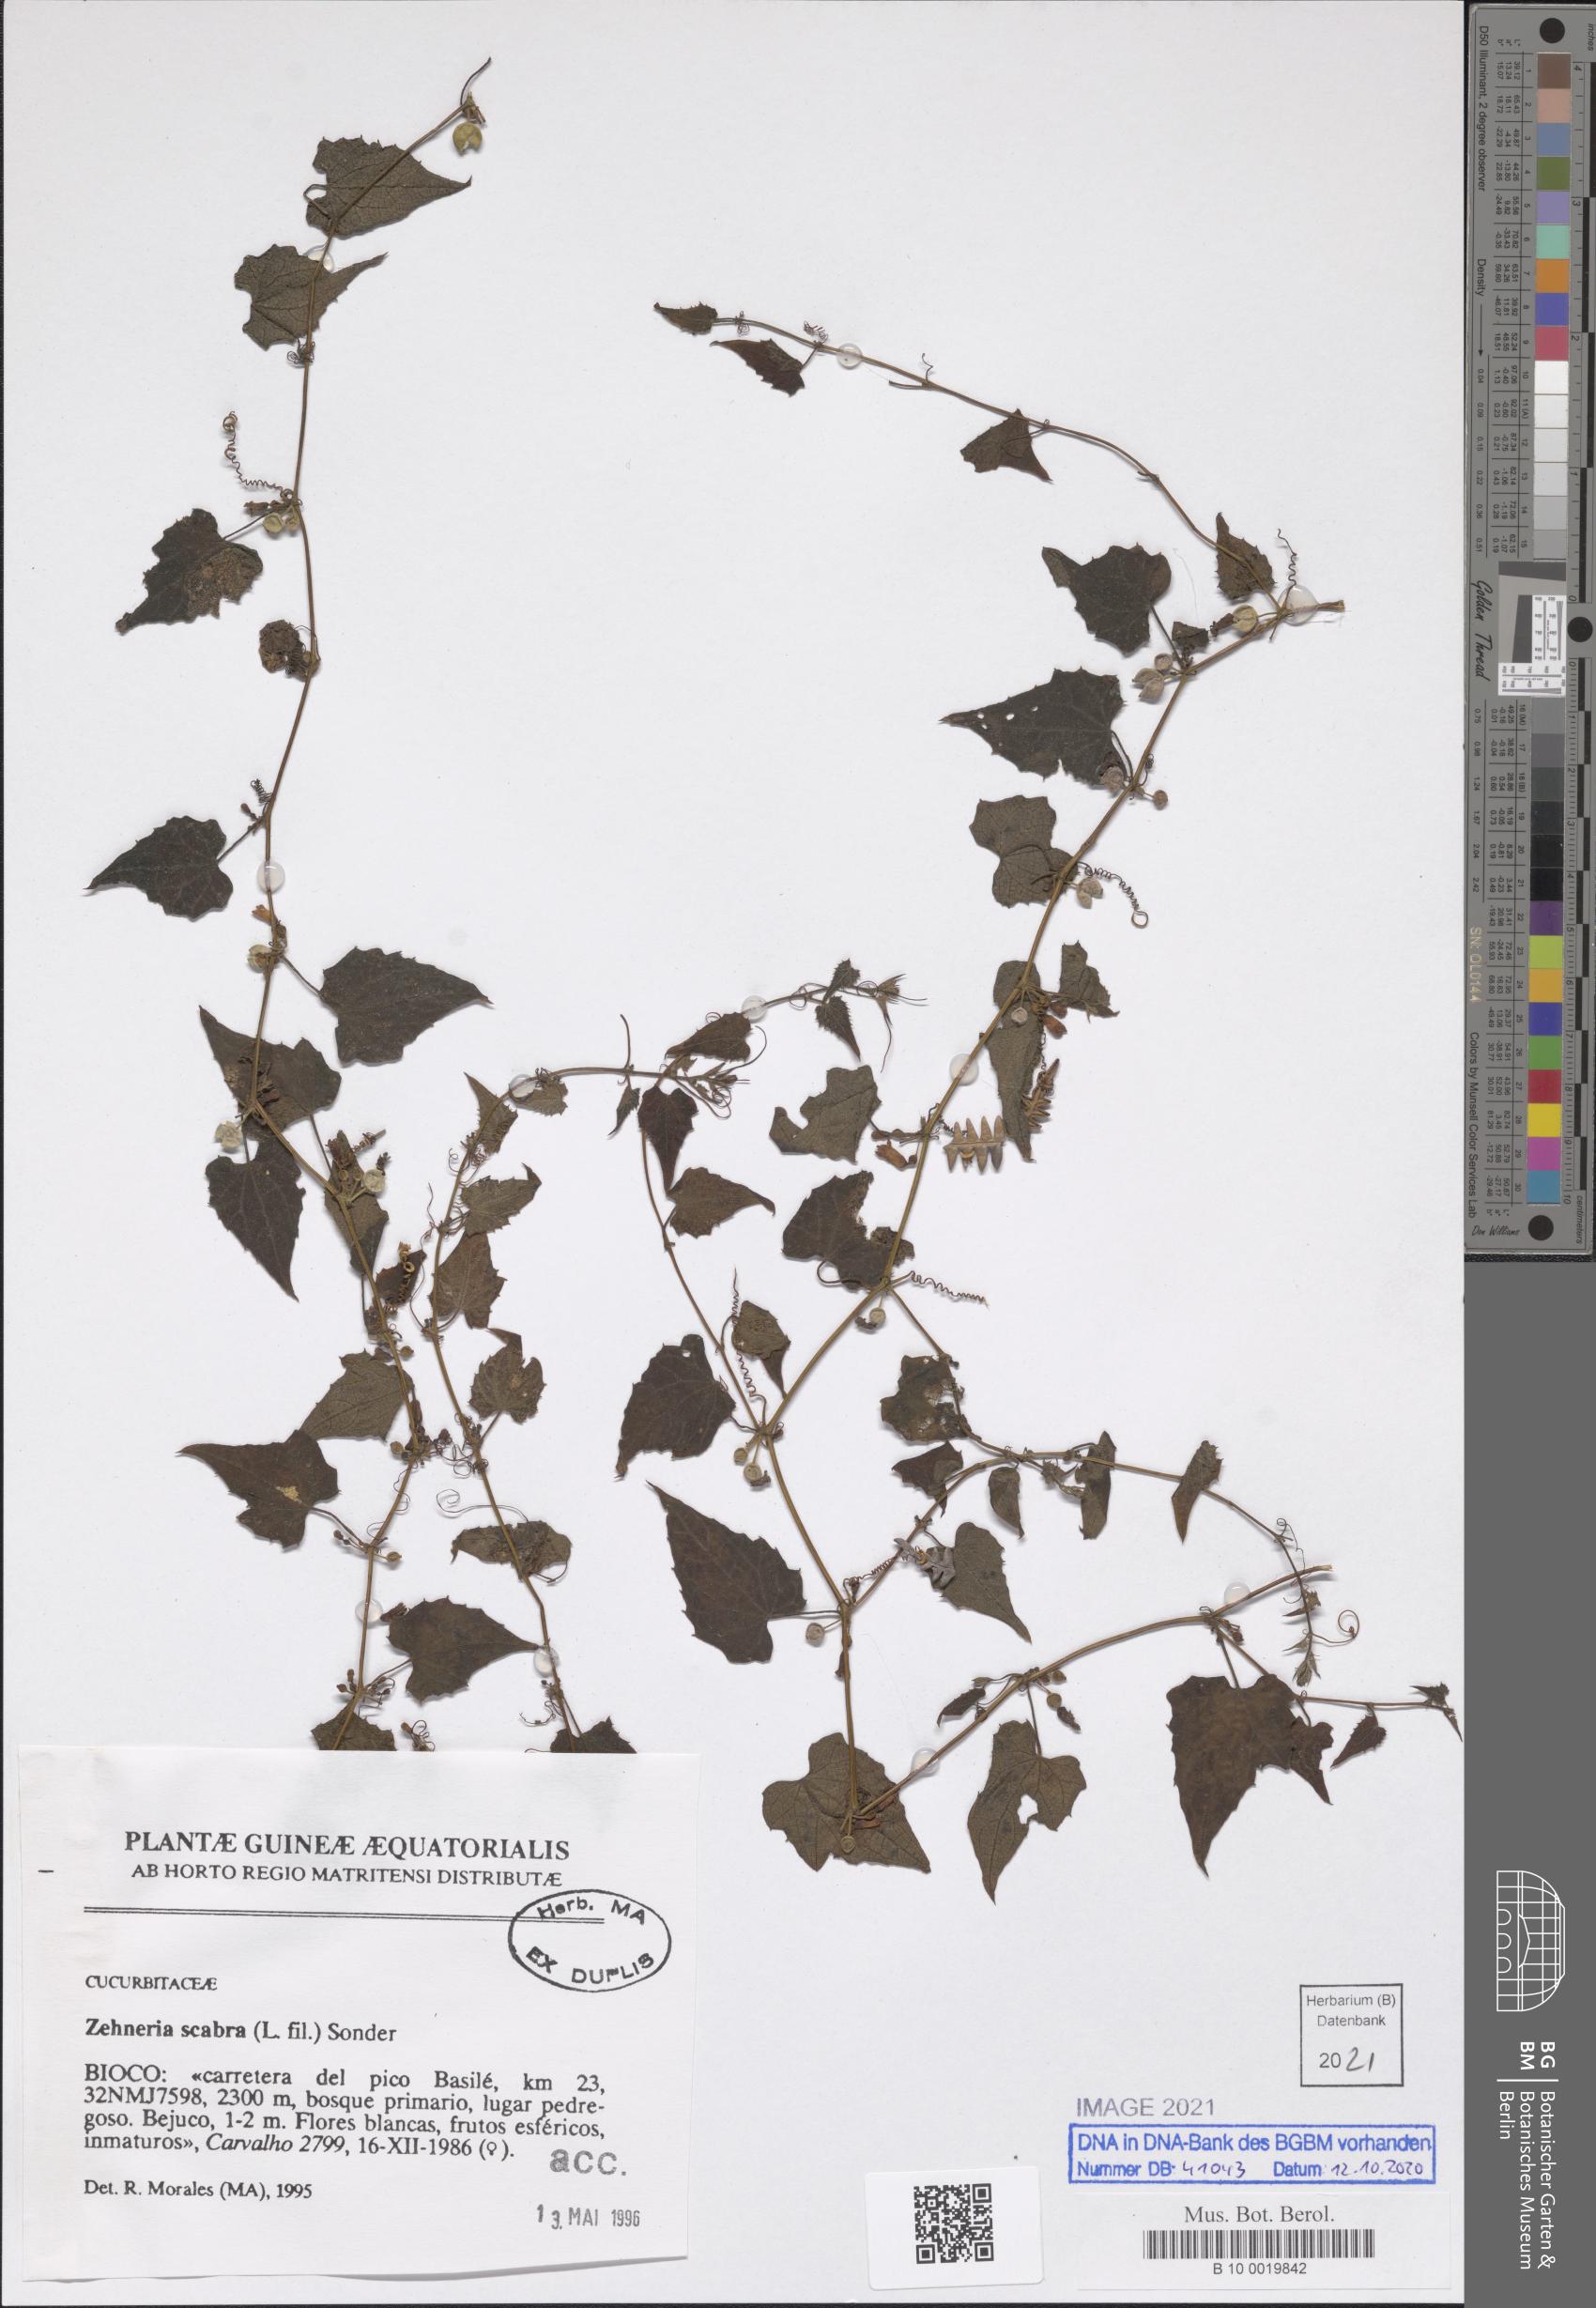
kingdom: Plantae
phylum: Tracheophyta
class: Magnoliopsida
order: Cucurbitales
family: Cucurbitaceae
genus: Zehneria
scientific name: Zehneria scabra
